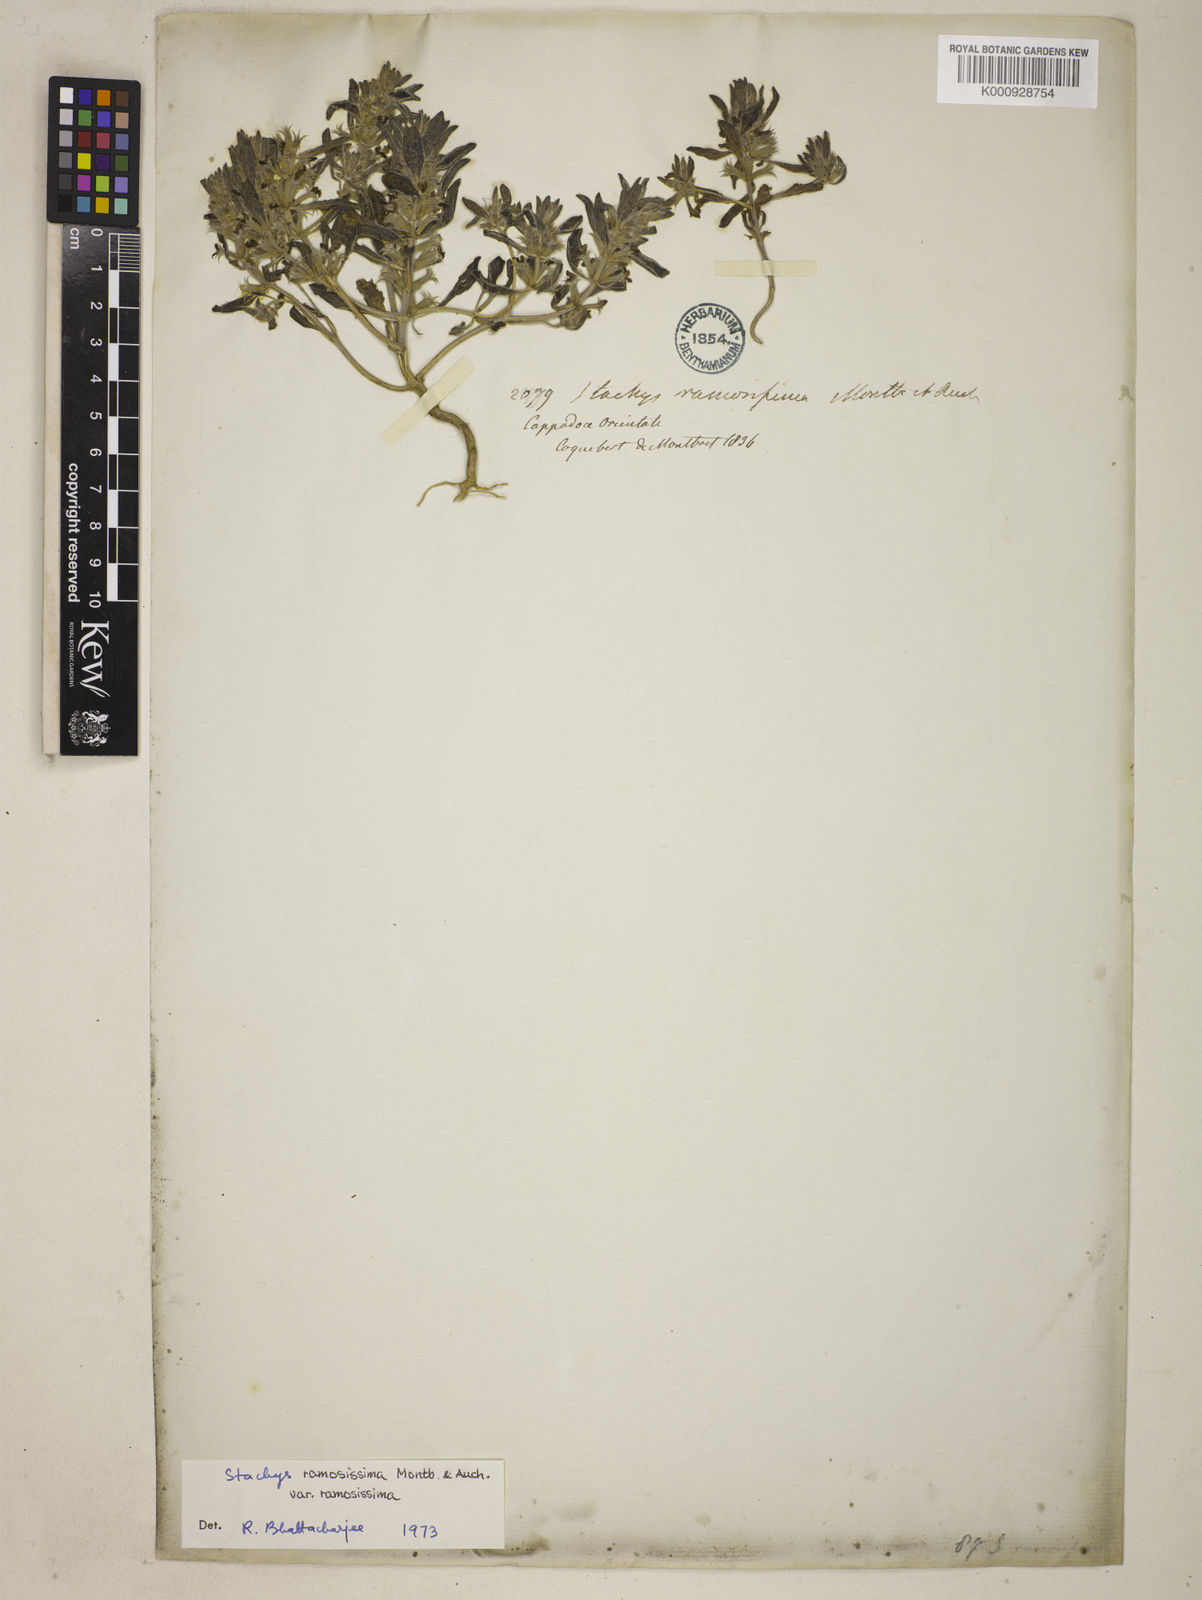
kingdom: Plantae
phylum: Tracheophyta
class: Magnoliopsida
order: Lamiales
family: Lamiaceae
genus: Stachys
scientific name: Stachys ramosissima
